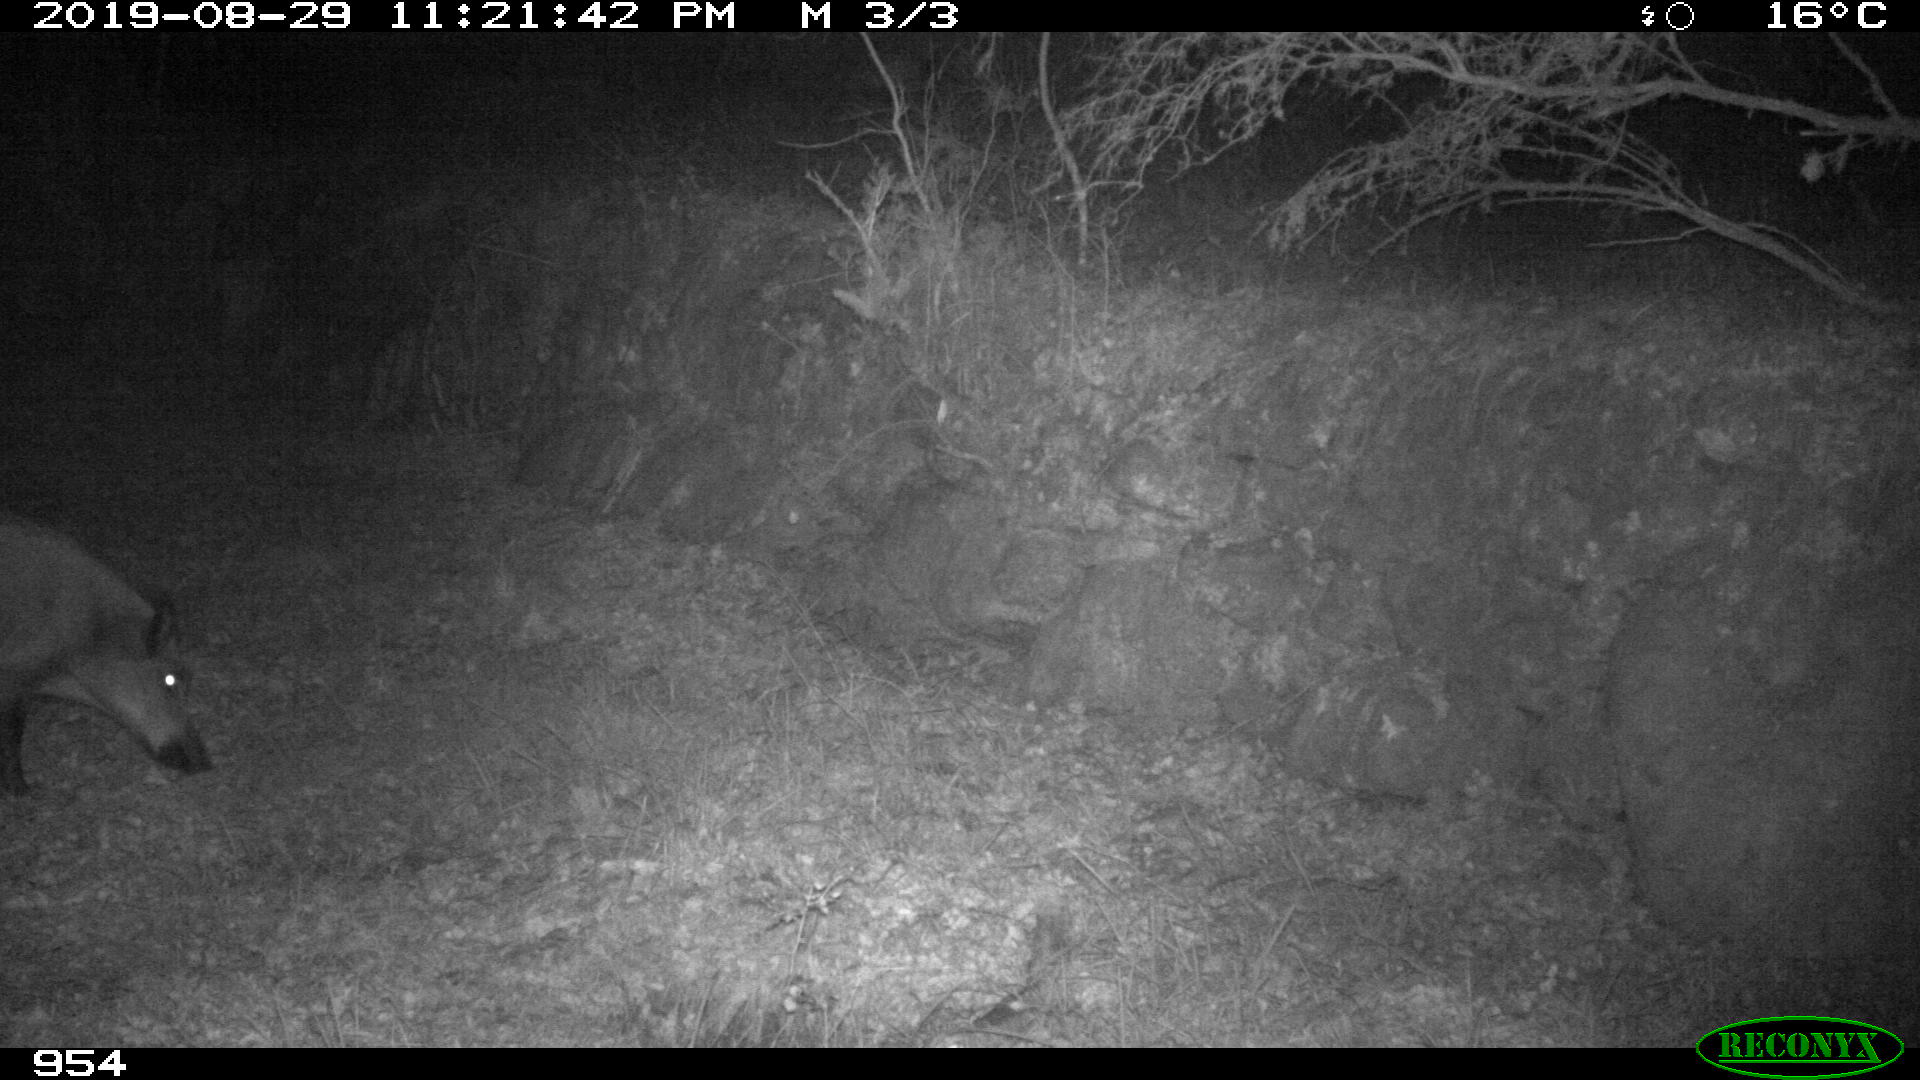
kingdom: Animalia
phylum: Chordata
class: Mammalia
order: Artiodactyla
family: Suidae
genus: Sus
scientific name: Sus scrofa
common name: Wild boar
